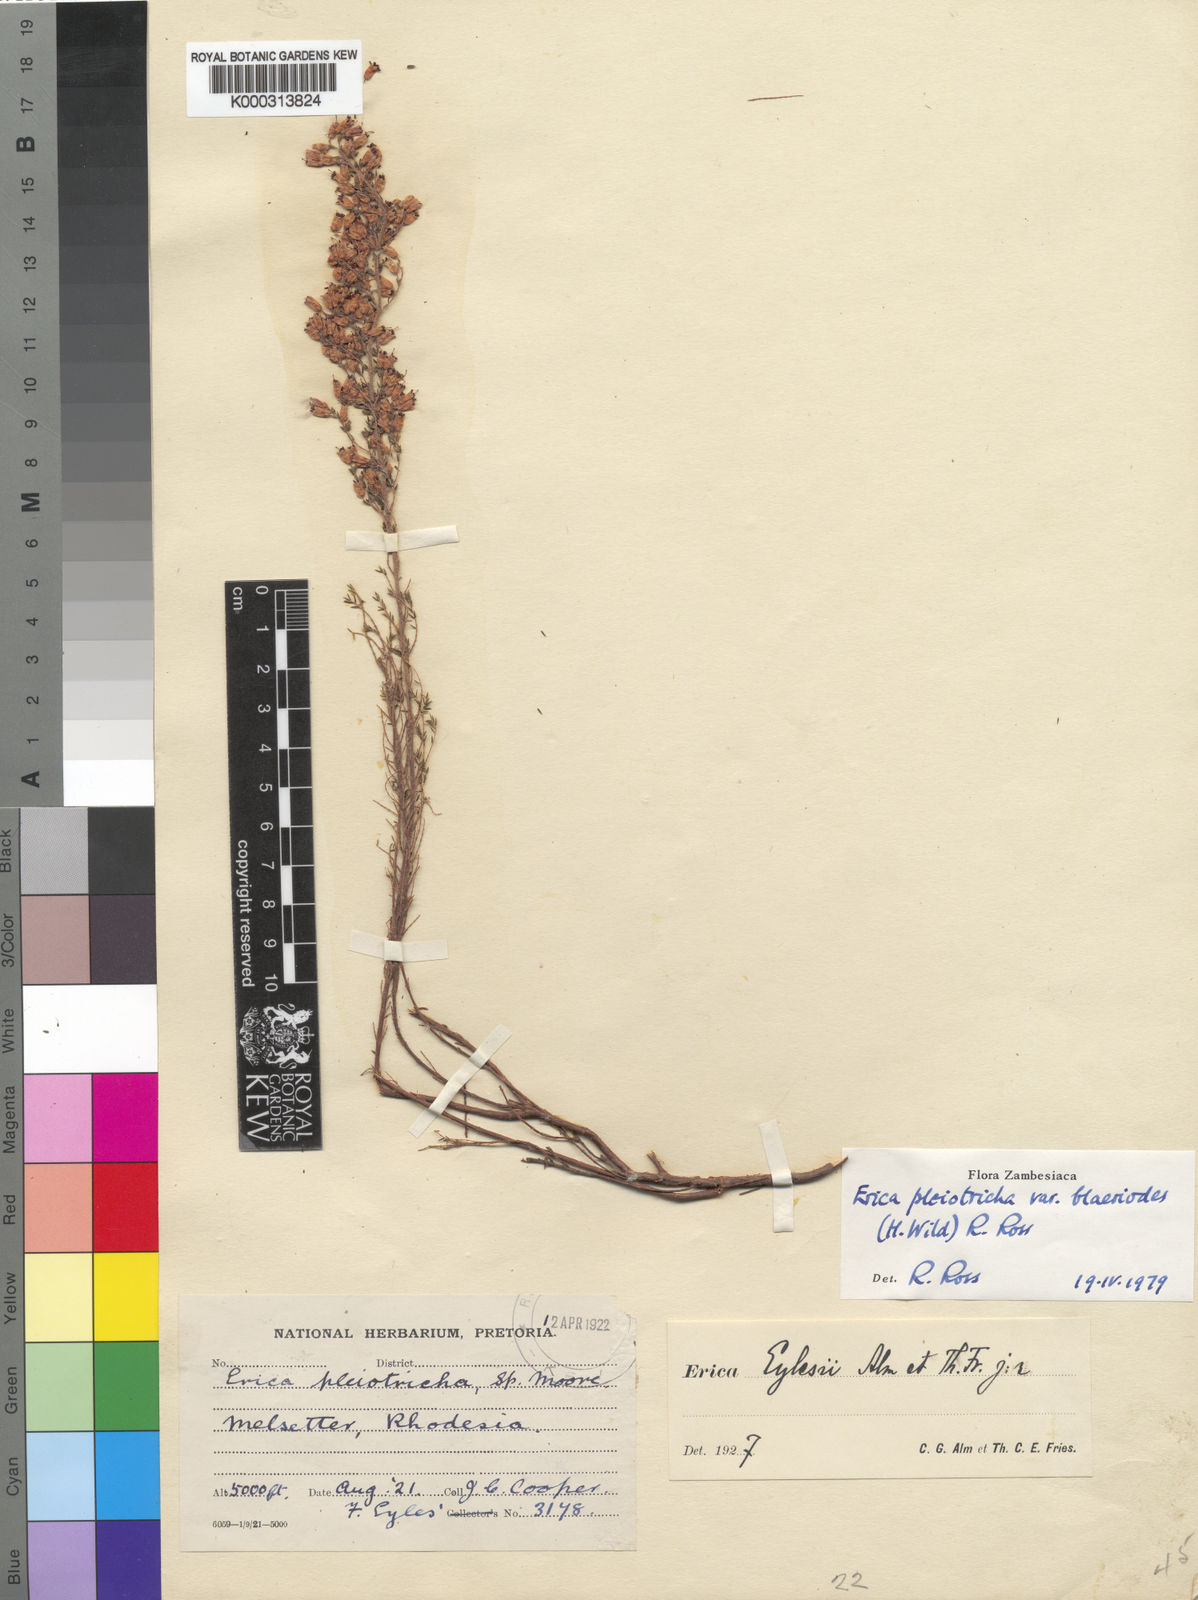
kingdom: Plantae
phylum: Tracheophyta
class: Magnoliopsida
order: Ericales
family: Ericaceae
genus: Erica
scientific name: Erica pleiotricha
